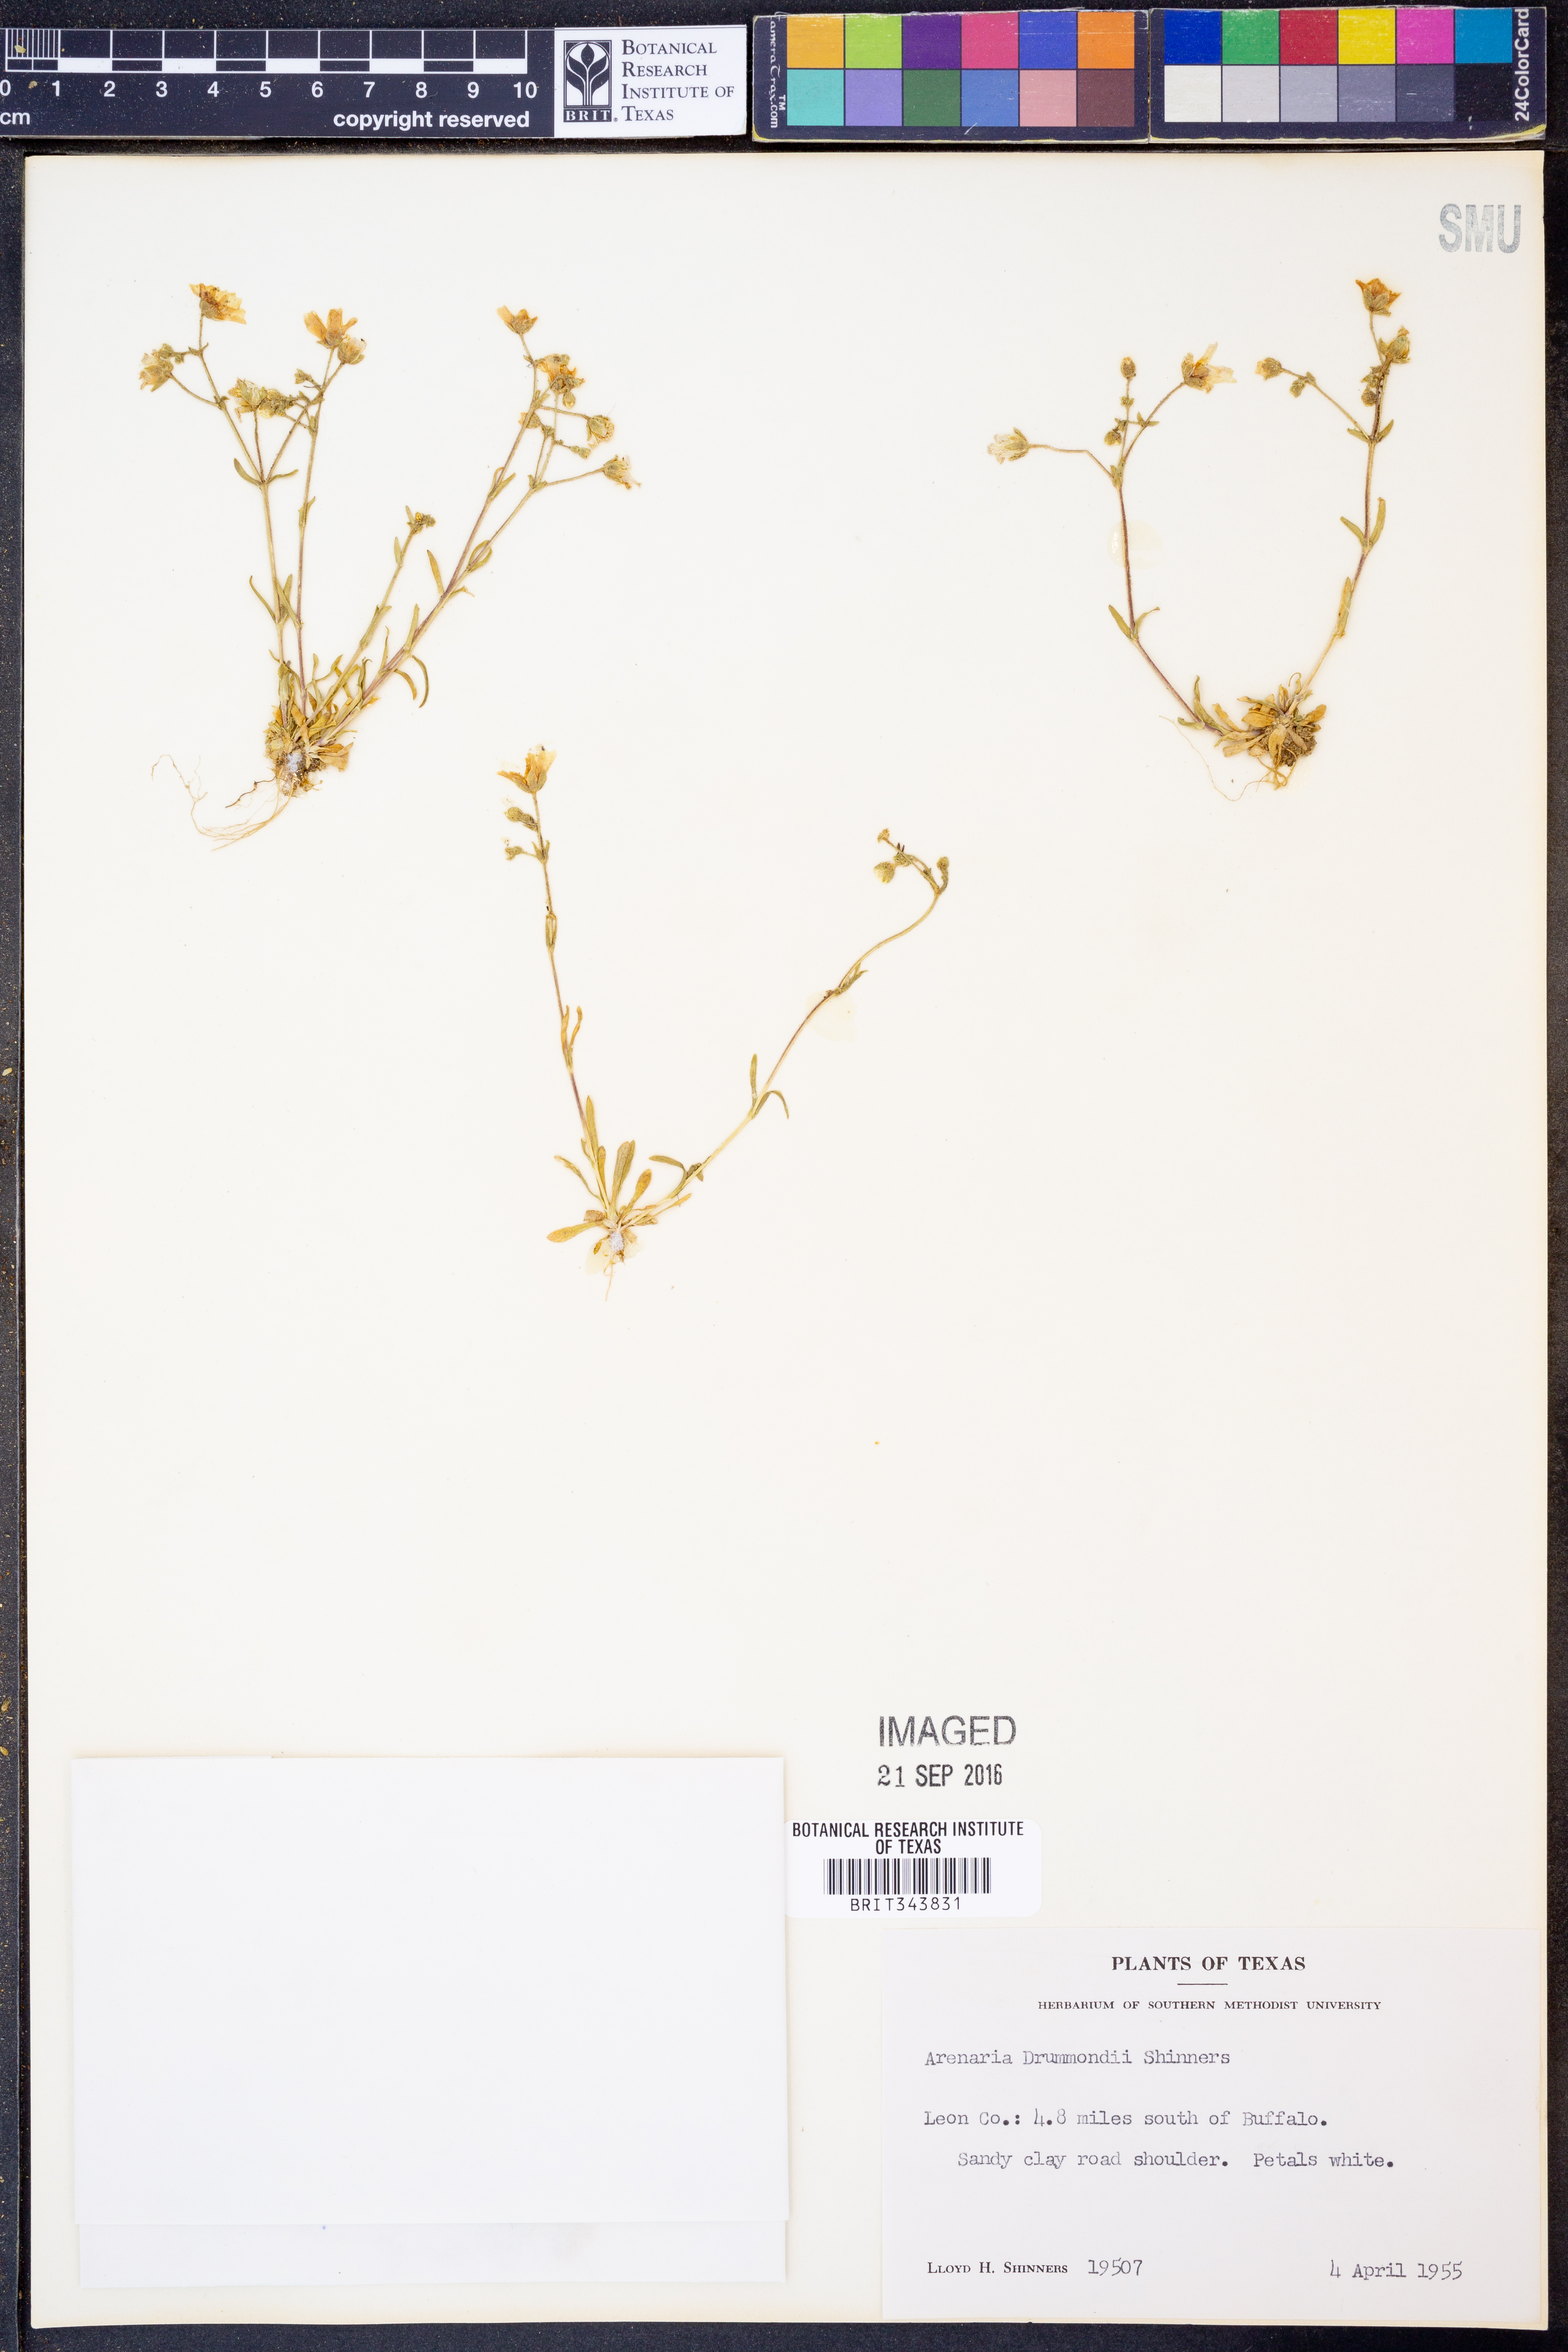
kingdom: Plantae
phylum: Tracheophyta
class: Magnoliopsida
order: Caryophyllales
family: Caryophyllaceae
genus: Geocarpon
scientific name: Geocarpon nuttallii
